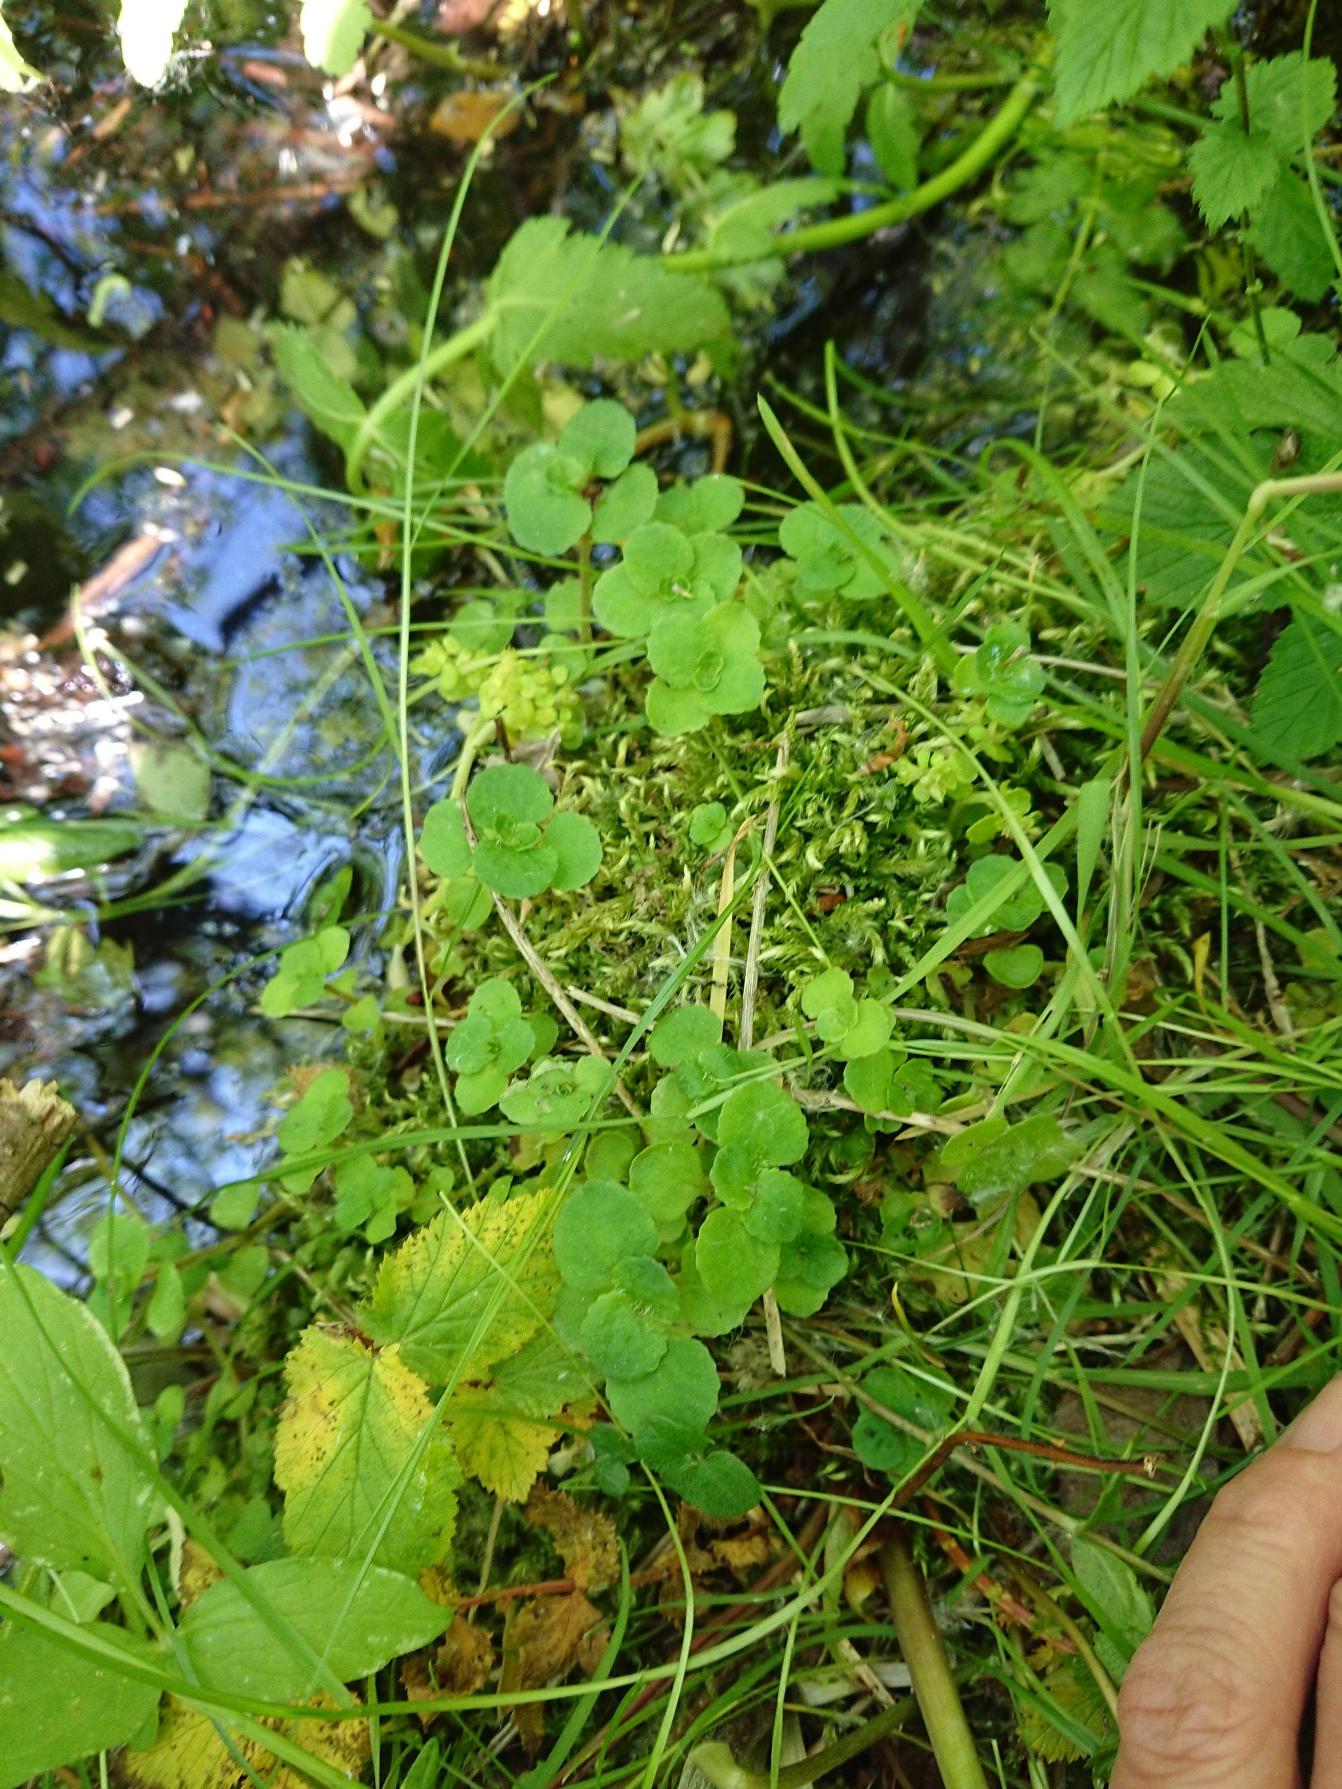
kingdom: Plantae
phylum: Tracheophyta
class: Magnoliopsida
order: Saxifragales
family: Saxifragaceae
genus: Chrysosplenium
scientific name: Chrysosplenium oppositifolium
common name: Småbladet milturt
